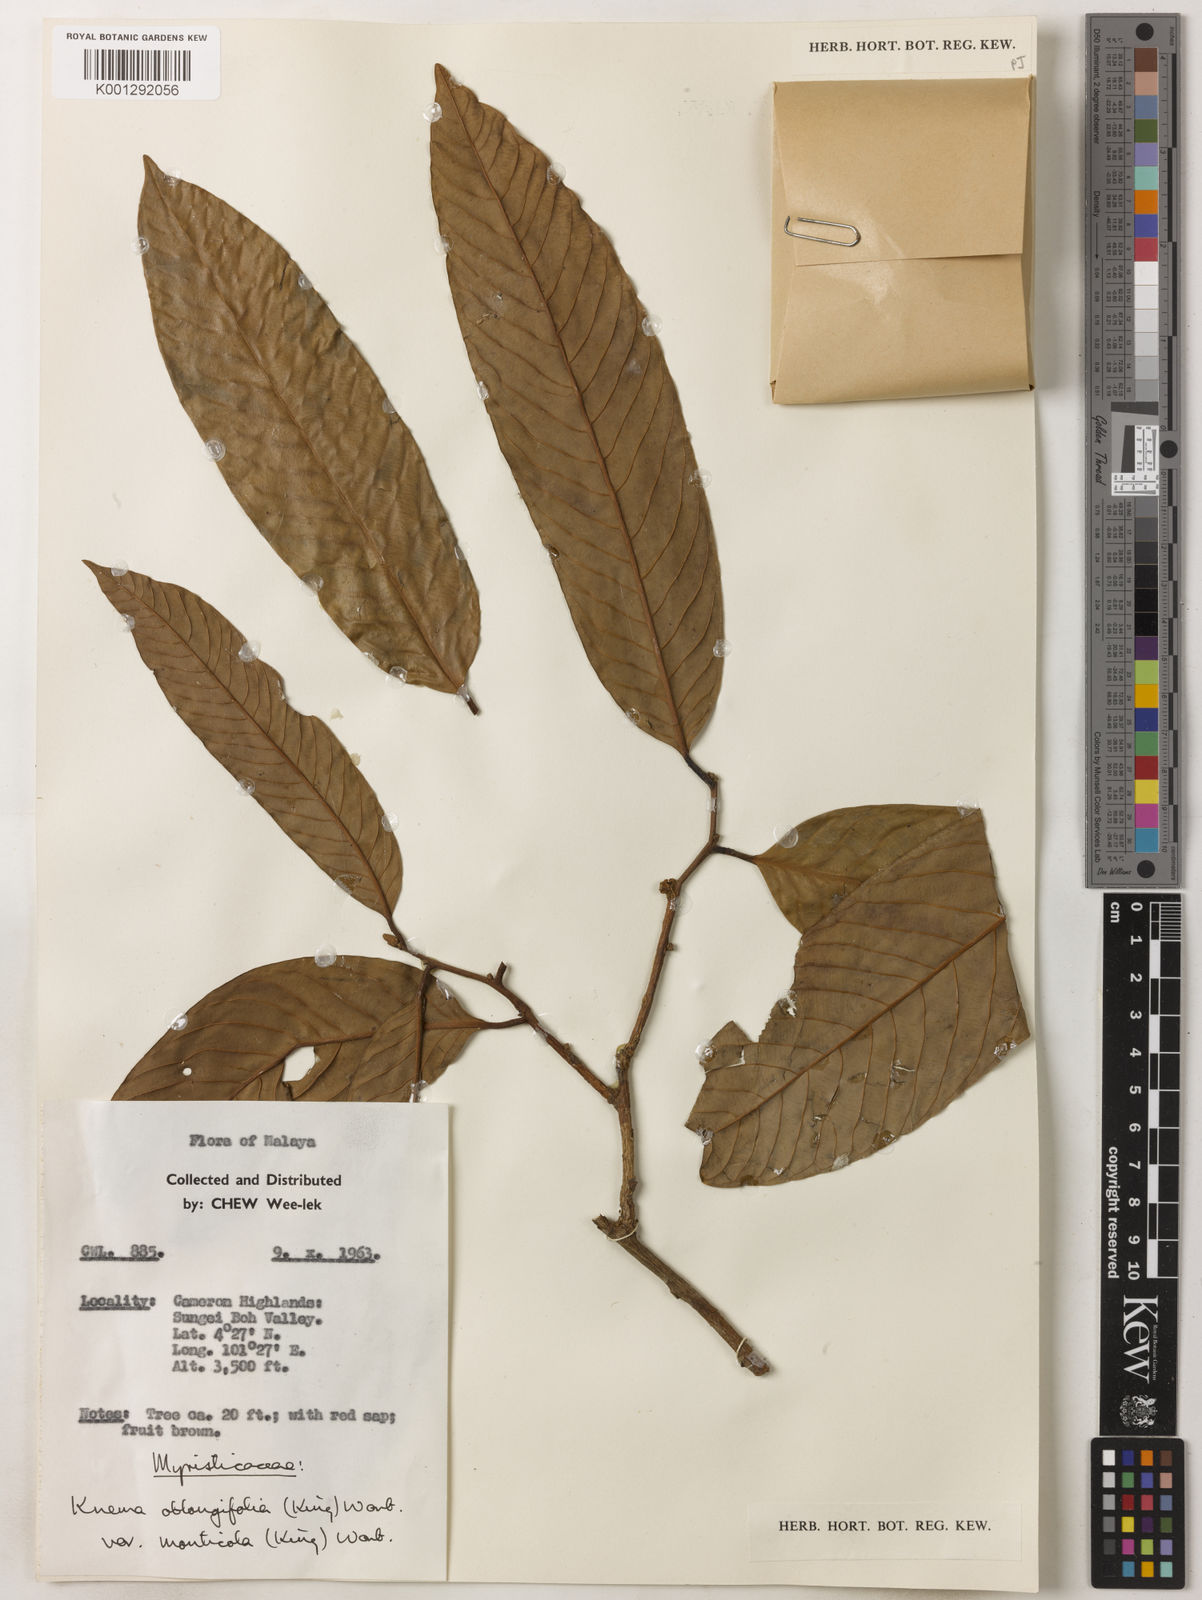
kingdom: Plantae
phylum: Tracheophyta
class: Magnoliopsida
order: Magnoliales
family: Myristicaceae
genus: Knema
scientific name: Knema
